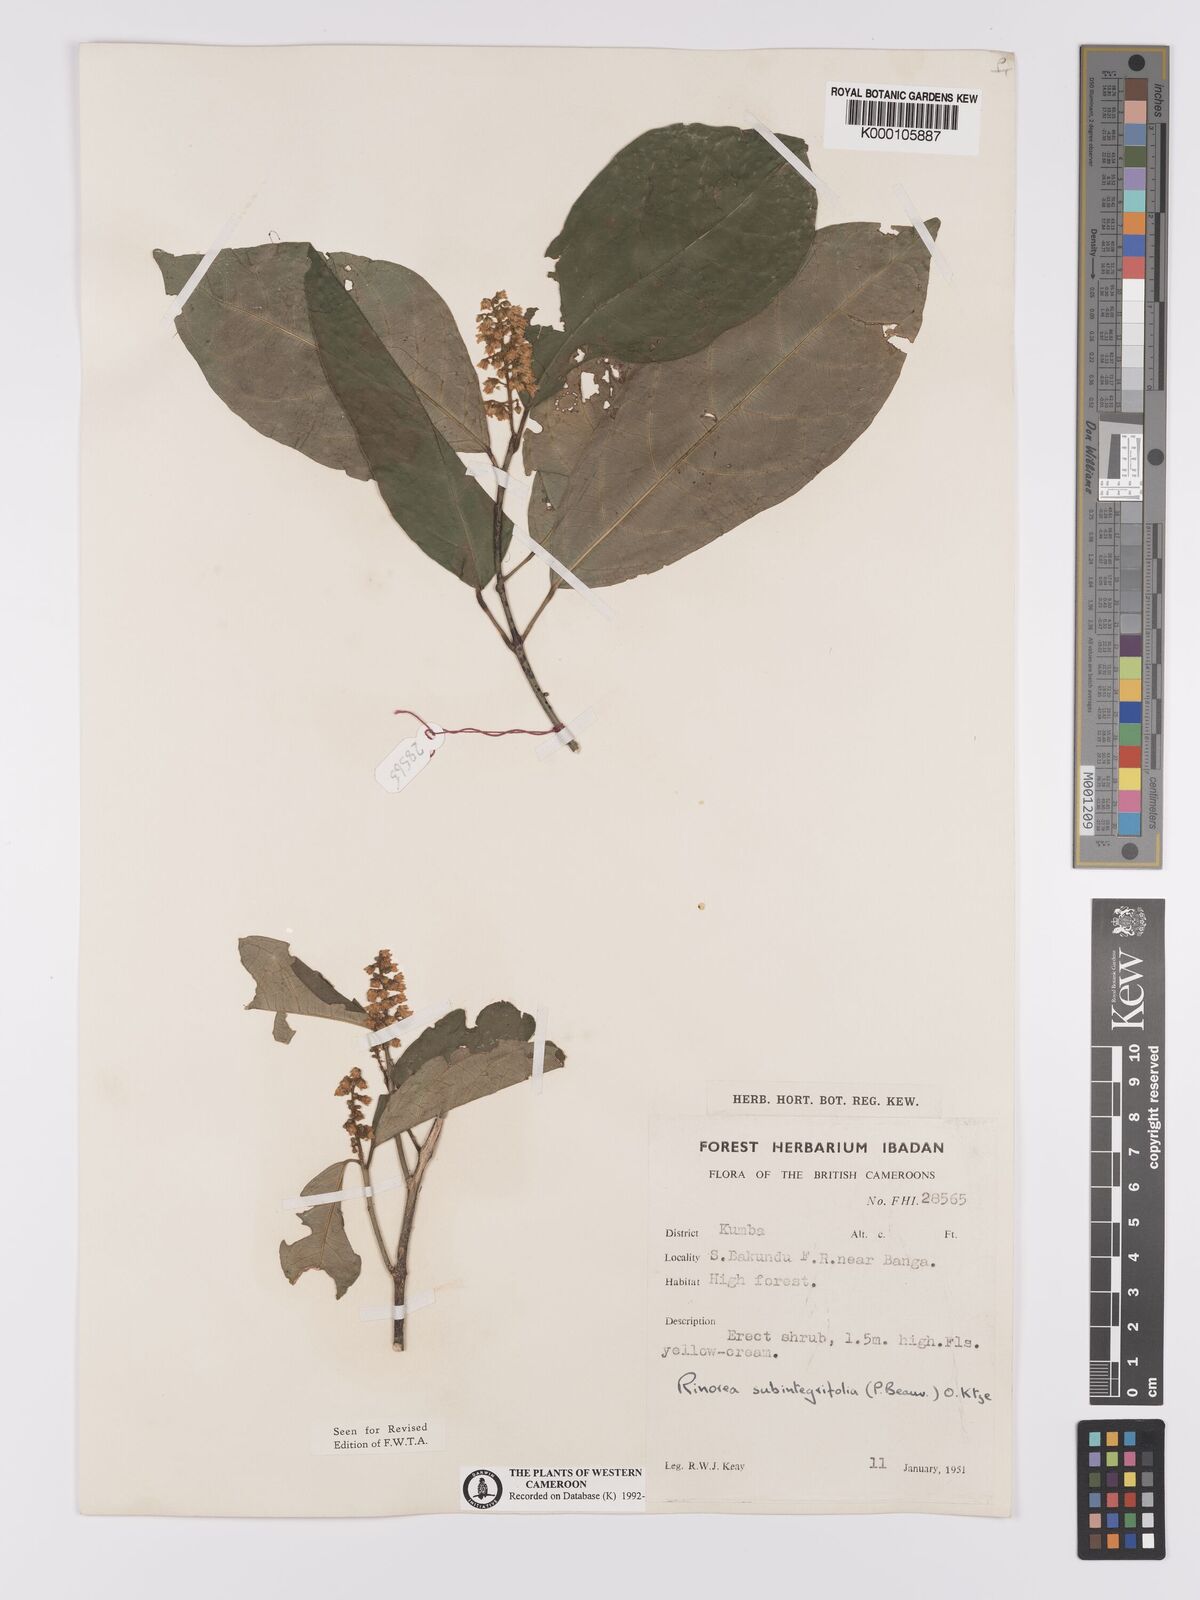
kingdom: Plantae
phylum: Tracheophyta
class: Magnoliopsida
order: Malpighiales
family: Violaceae
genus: Rinorea
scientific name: Rinorea subintegrifolia
